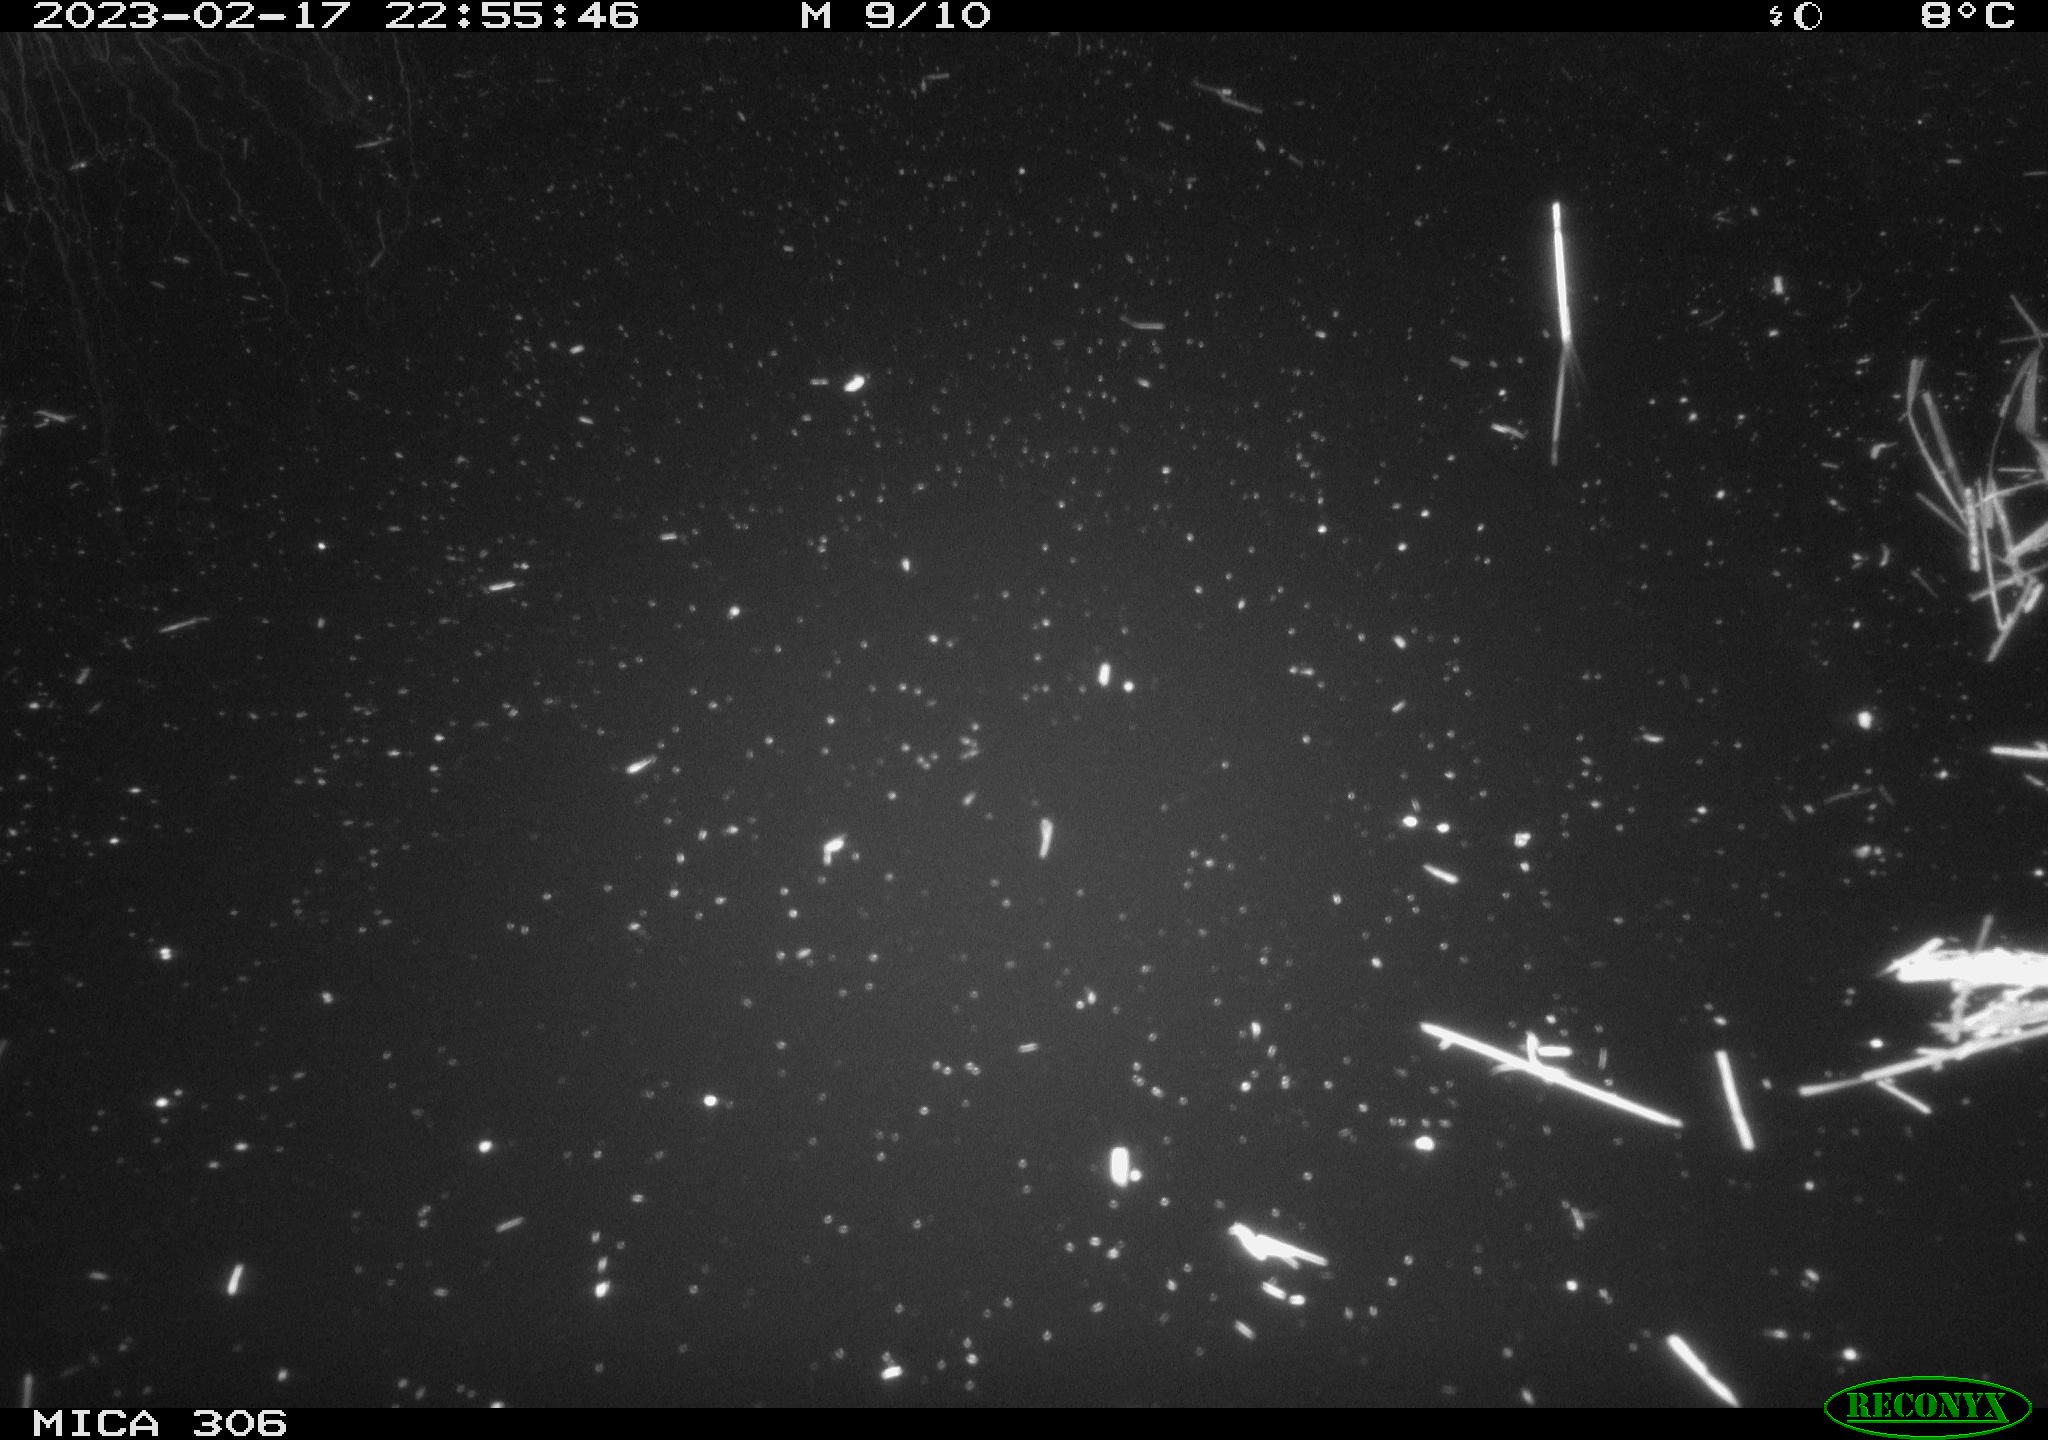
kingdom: Animalia
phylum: Chordata
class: Mammalia
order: Rodentia
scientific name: Rodentia
